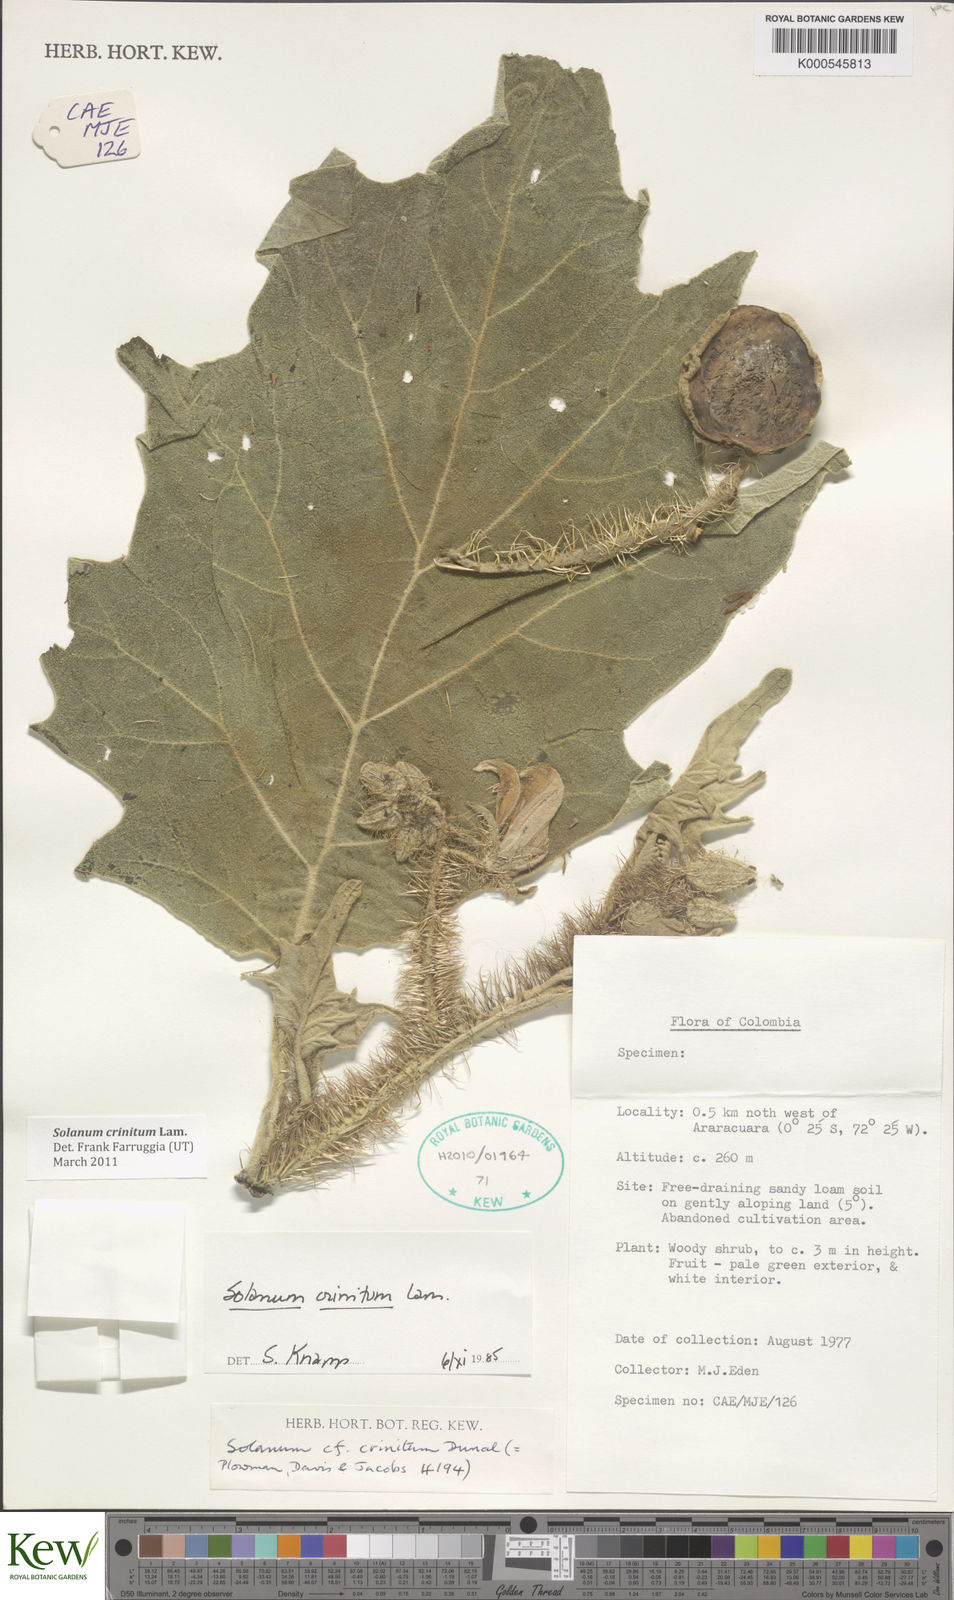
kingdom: Plantae
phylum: Tracheophyta
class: Magnoliopsida
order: Solanales
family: Solanaceae
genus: Solanum
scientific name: Solanum crinitum
